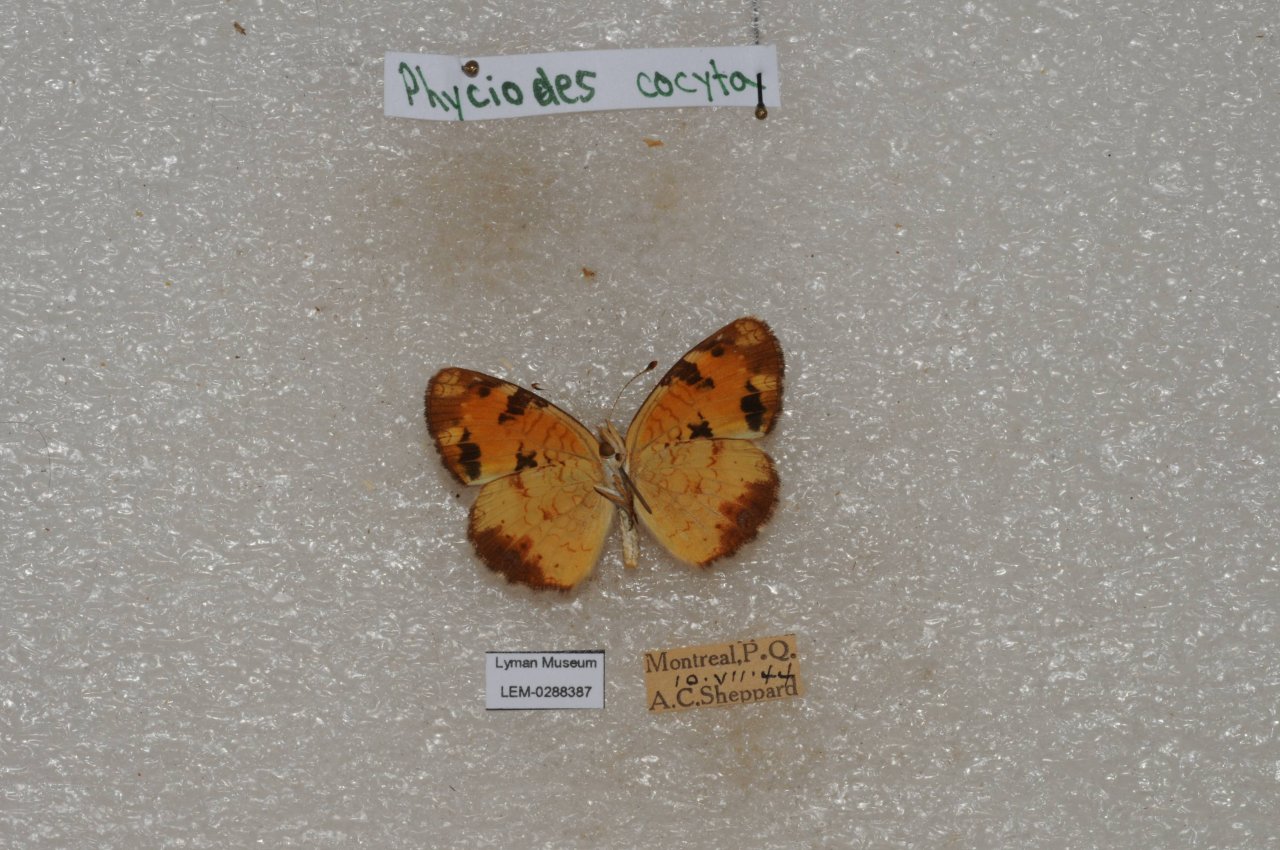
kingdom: Animalia
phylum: Arthropoda
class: Insecta
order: Lepidoptera
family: Nymphalidae
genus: Phyciodes
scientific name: Phyciodes tharos
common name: Northern Crescent
